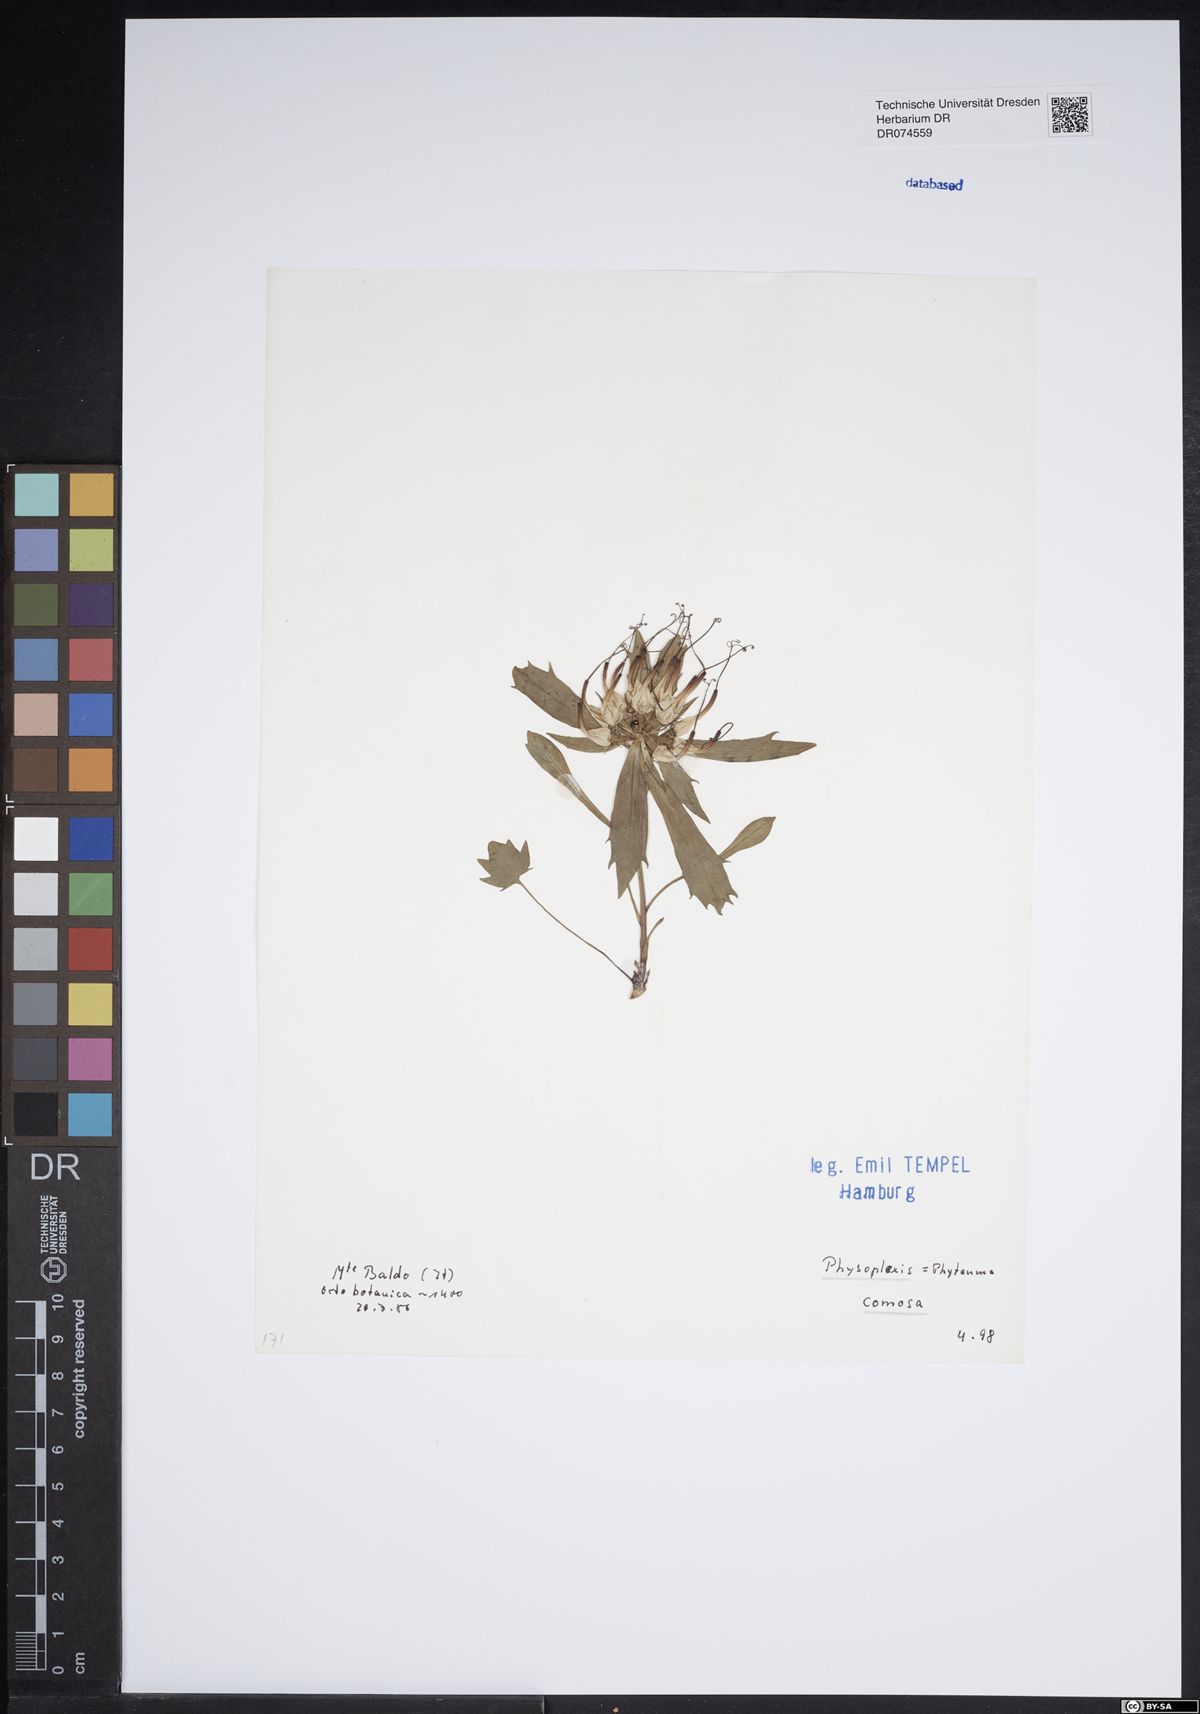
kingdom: Plantae
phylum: Tracheophyta
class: Magnoliopsida
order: Asterales
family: Campanulaceae
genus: Physoplexis
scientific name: Physoplexis comosa
